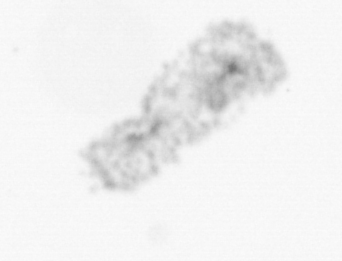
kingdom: Chromista
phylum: Ochrophyta
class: Bacillariophyceae
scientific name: Bacillariophyceae
